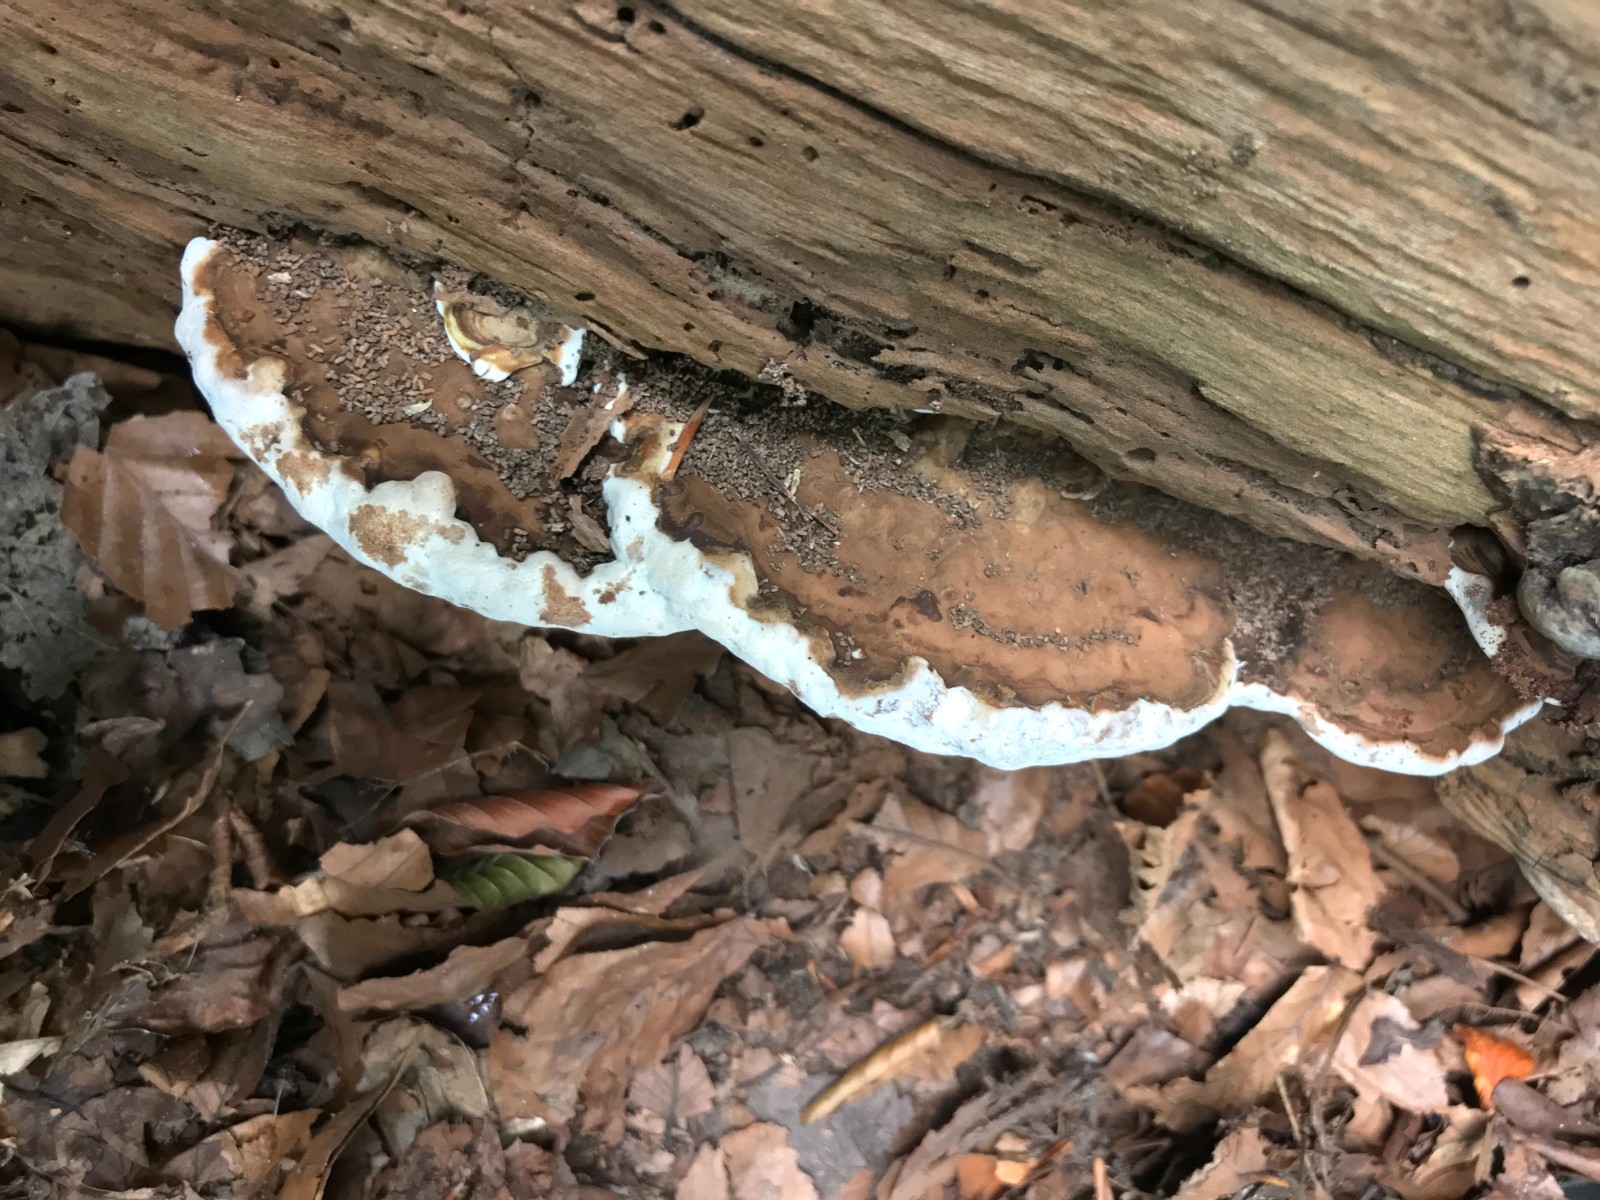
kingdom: Fungi
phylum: Basidiomycota
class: Agaricomycetes
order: Polyporales
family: Polyporaceae
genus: Ganoderma
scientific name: Ganoderma applanatum
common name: flad lakporesvamp
